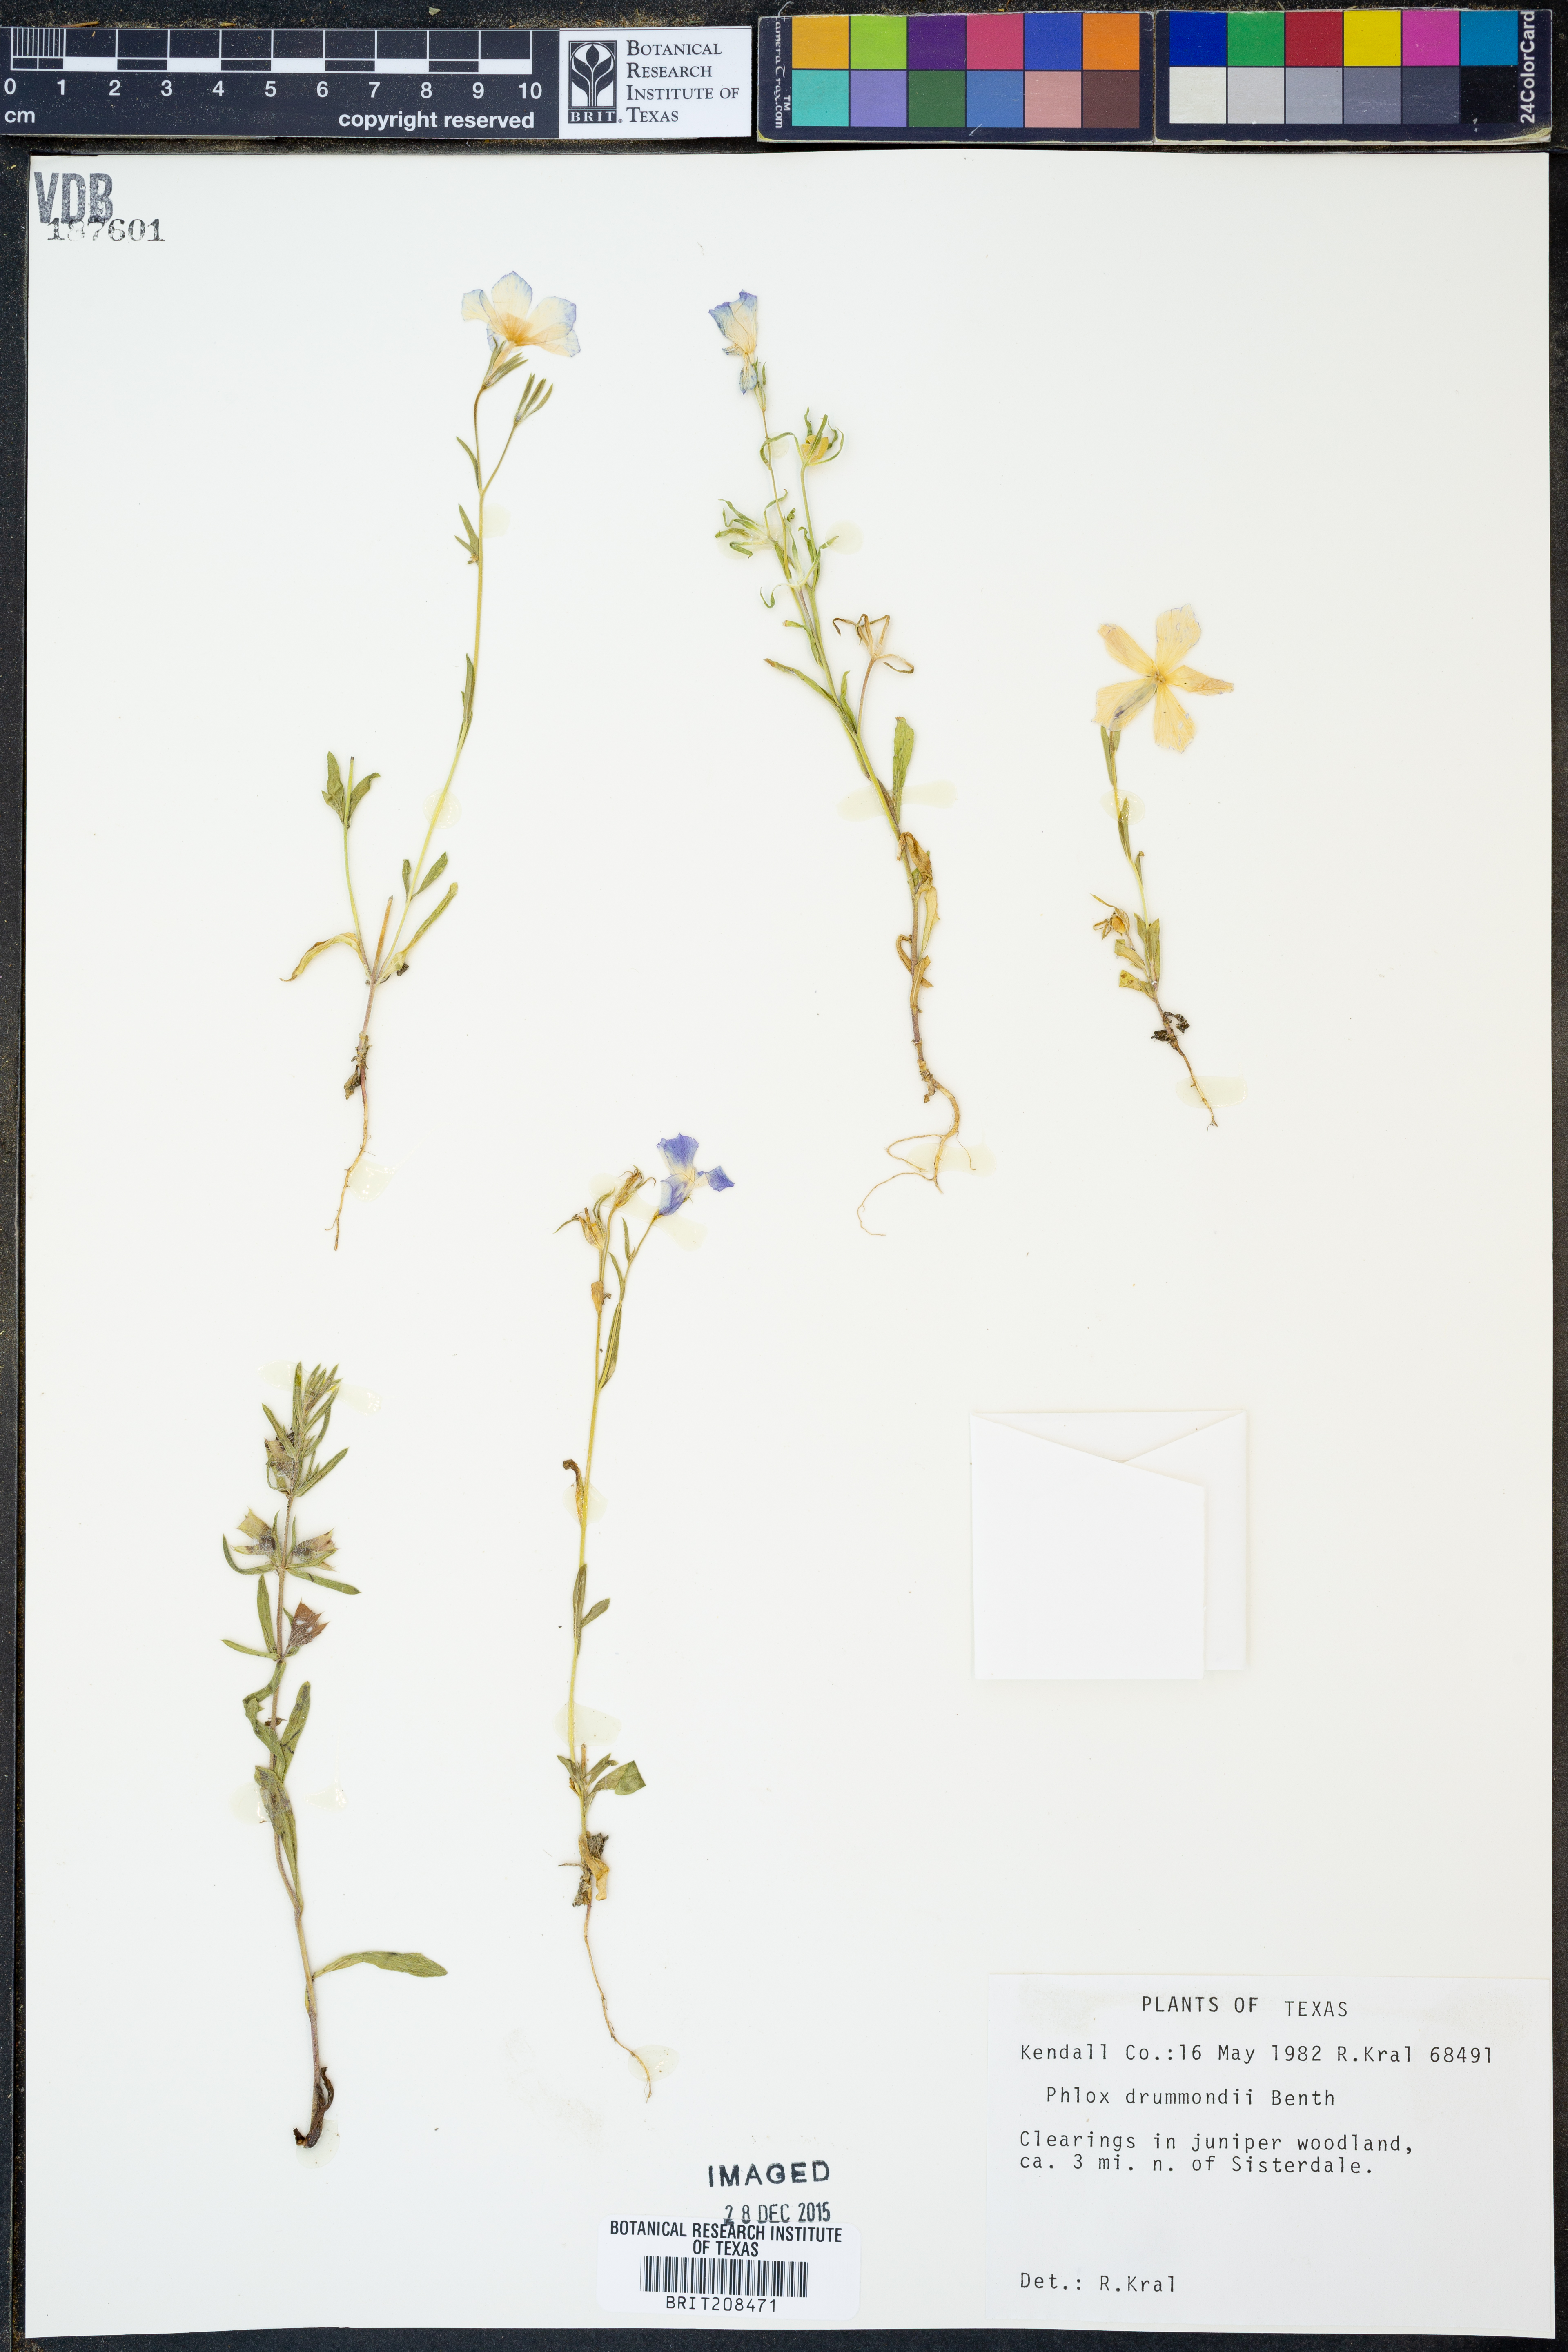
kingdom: Plantae
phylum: Tracheophyta
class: Magnoliopsida
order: Ericales
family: Polemoniaceae
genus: Phlox
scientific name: Phlox drummondii
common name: Drummond's phlox
